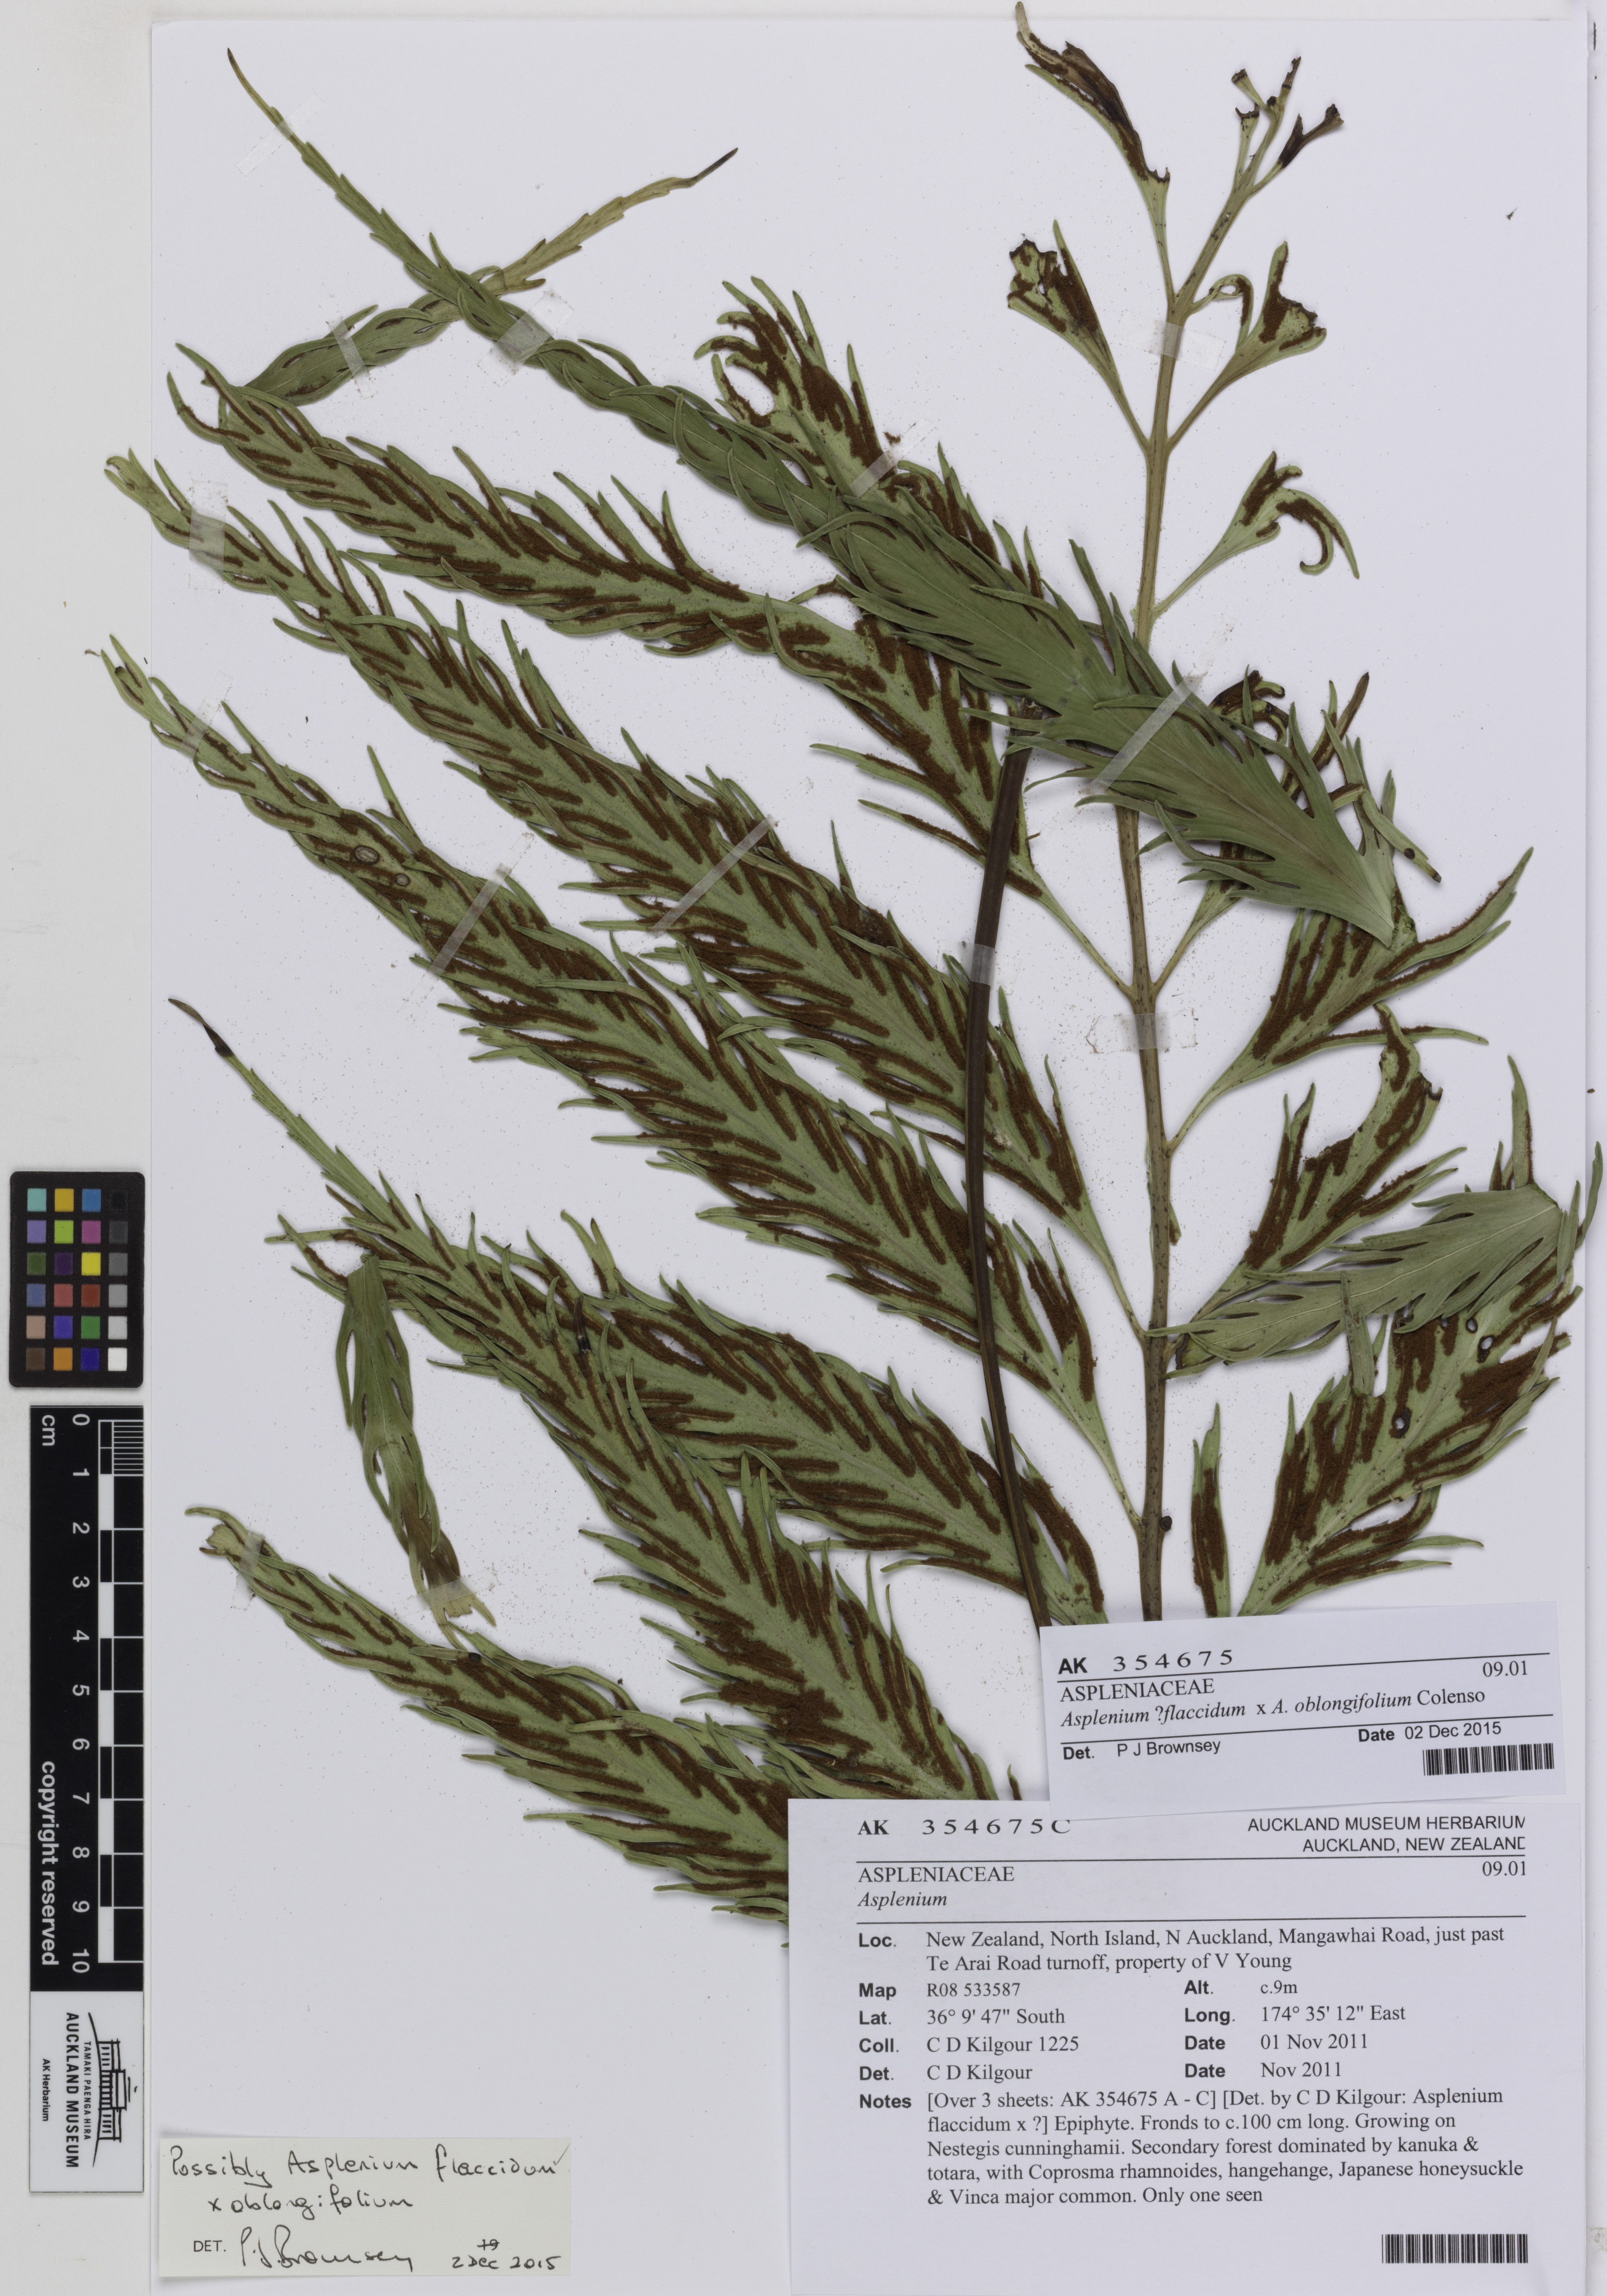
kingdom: Plantae
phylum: Tracheophyta
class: Polypodiopsida
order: Polypodiales
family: Aspleniaceae
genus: Asplenium
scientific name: Asplenium
